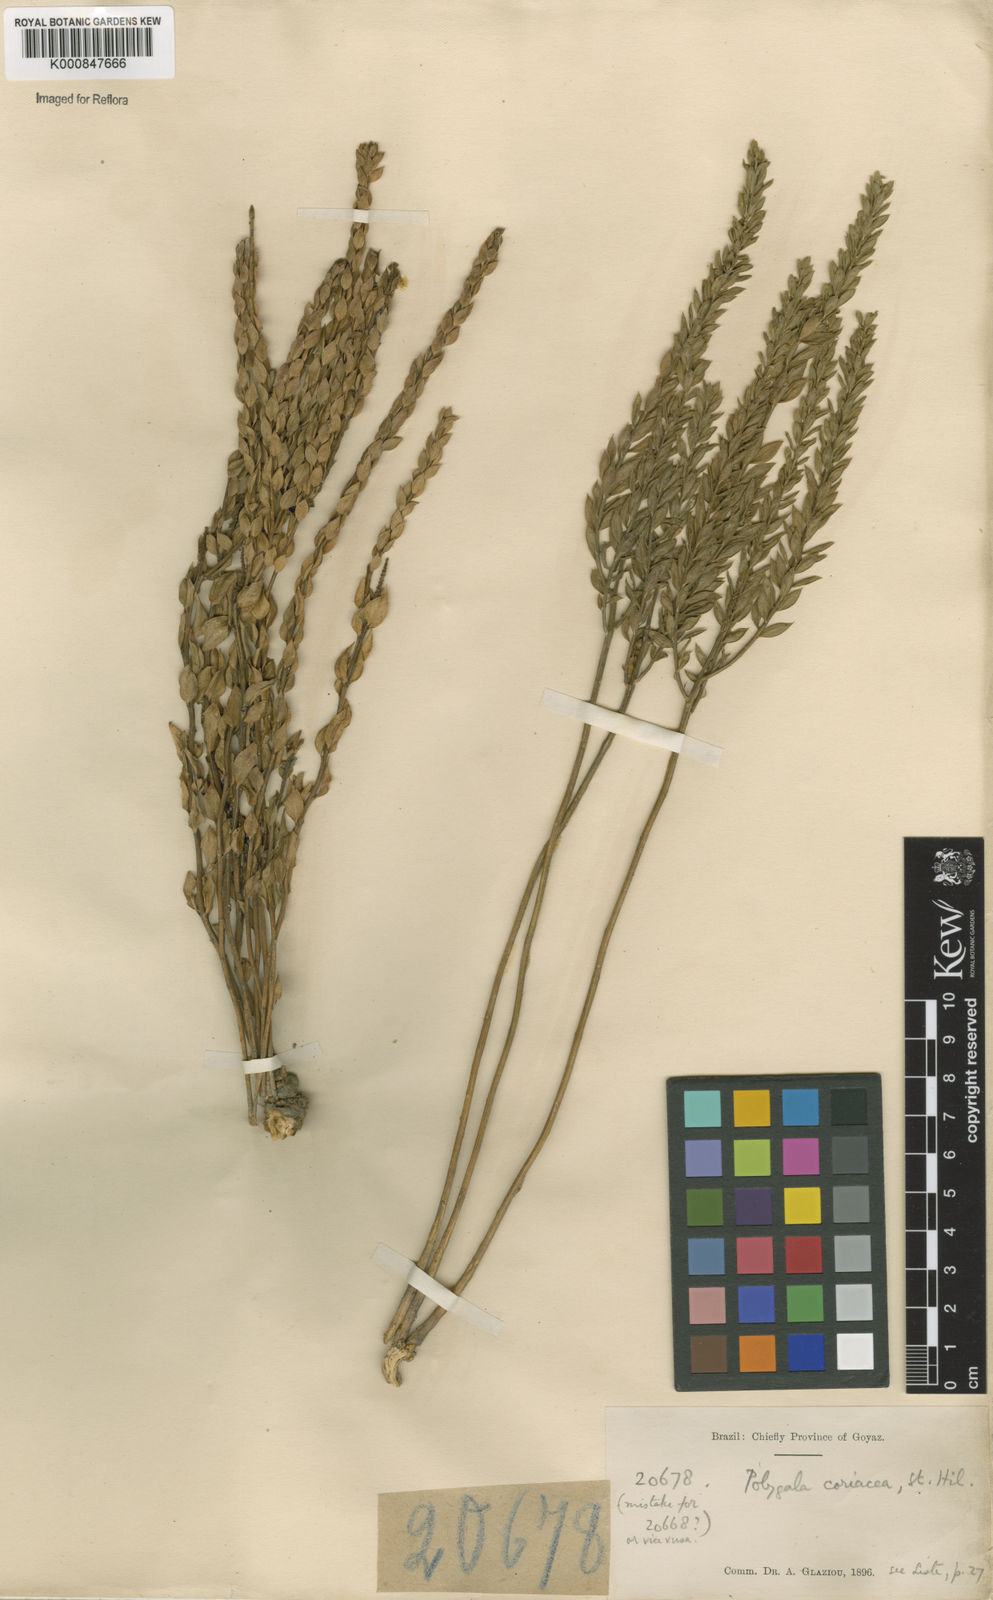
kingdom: Plantae
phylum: Tracheophyta
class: Magnoliopsida
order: Fabales
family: Polygalaceae
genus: Polygala
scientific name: Polygala coriacea
